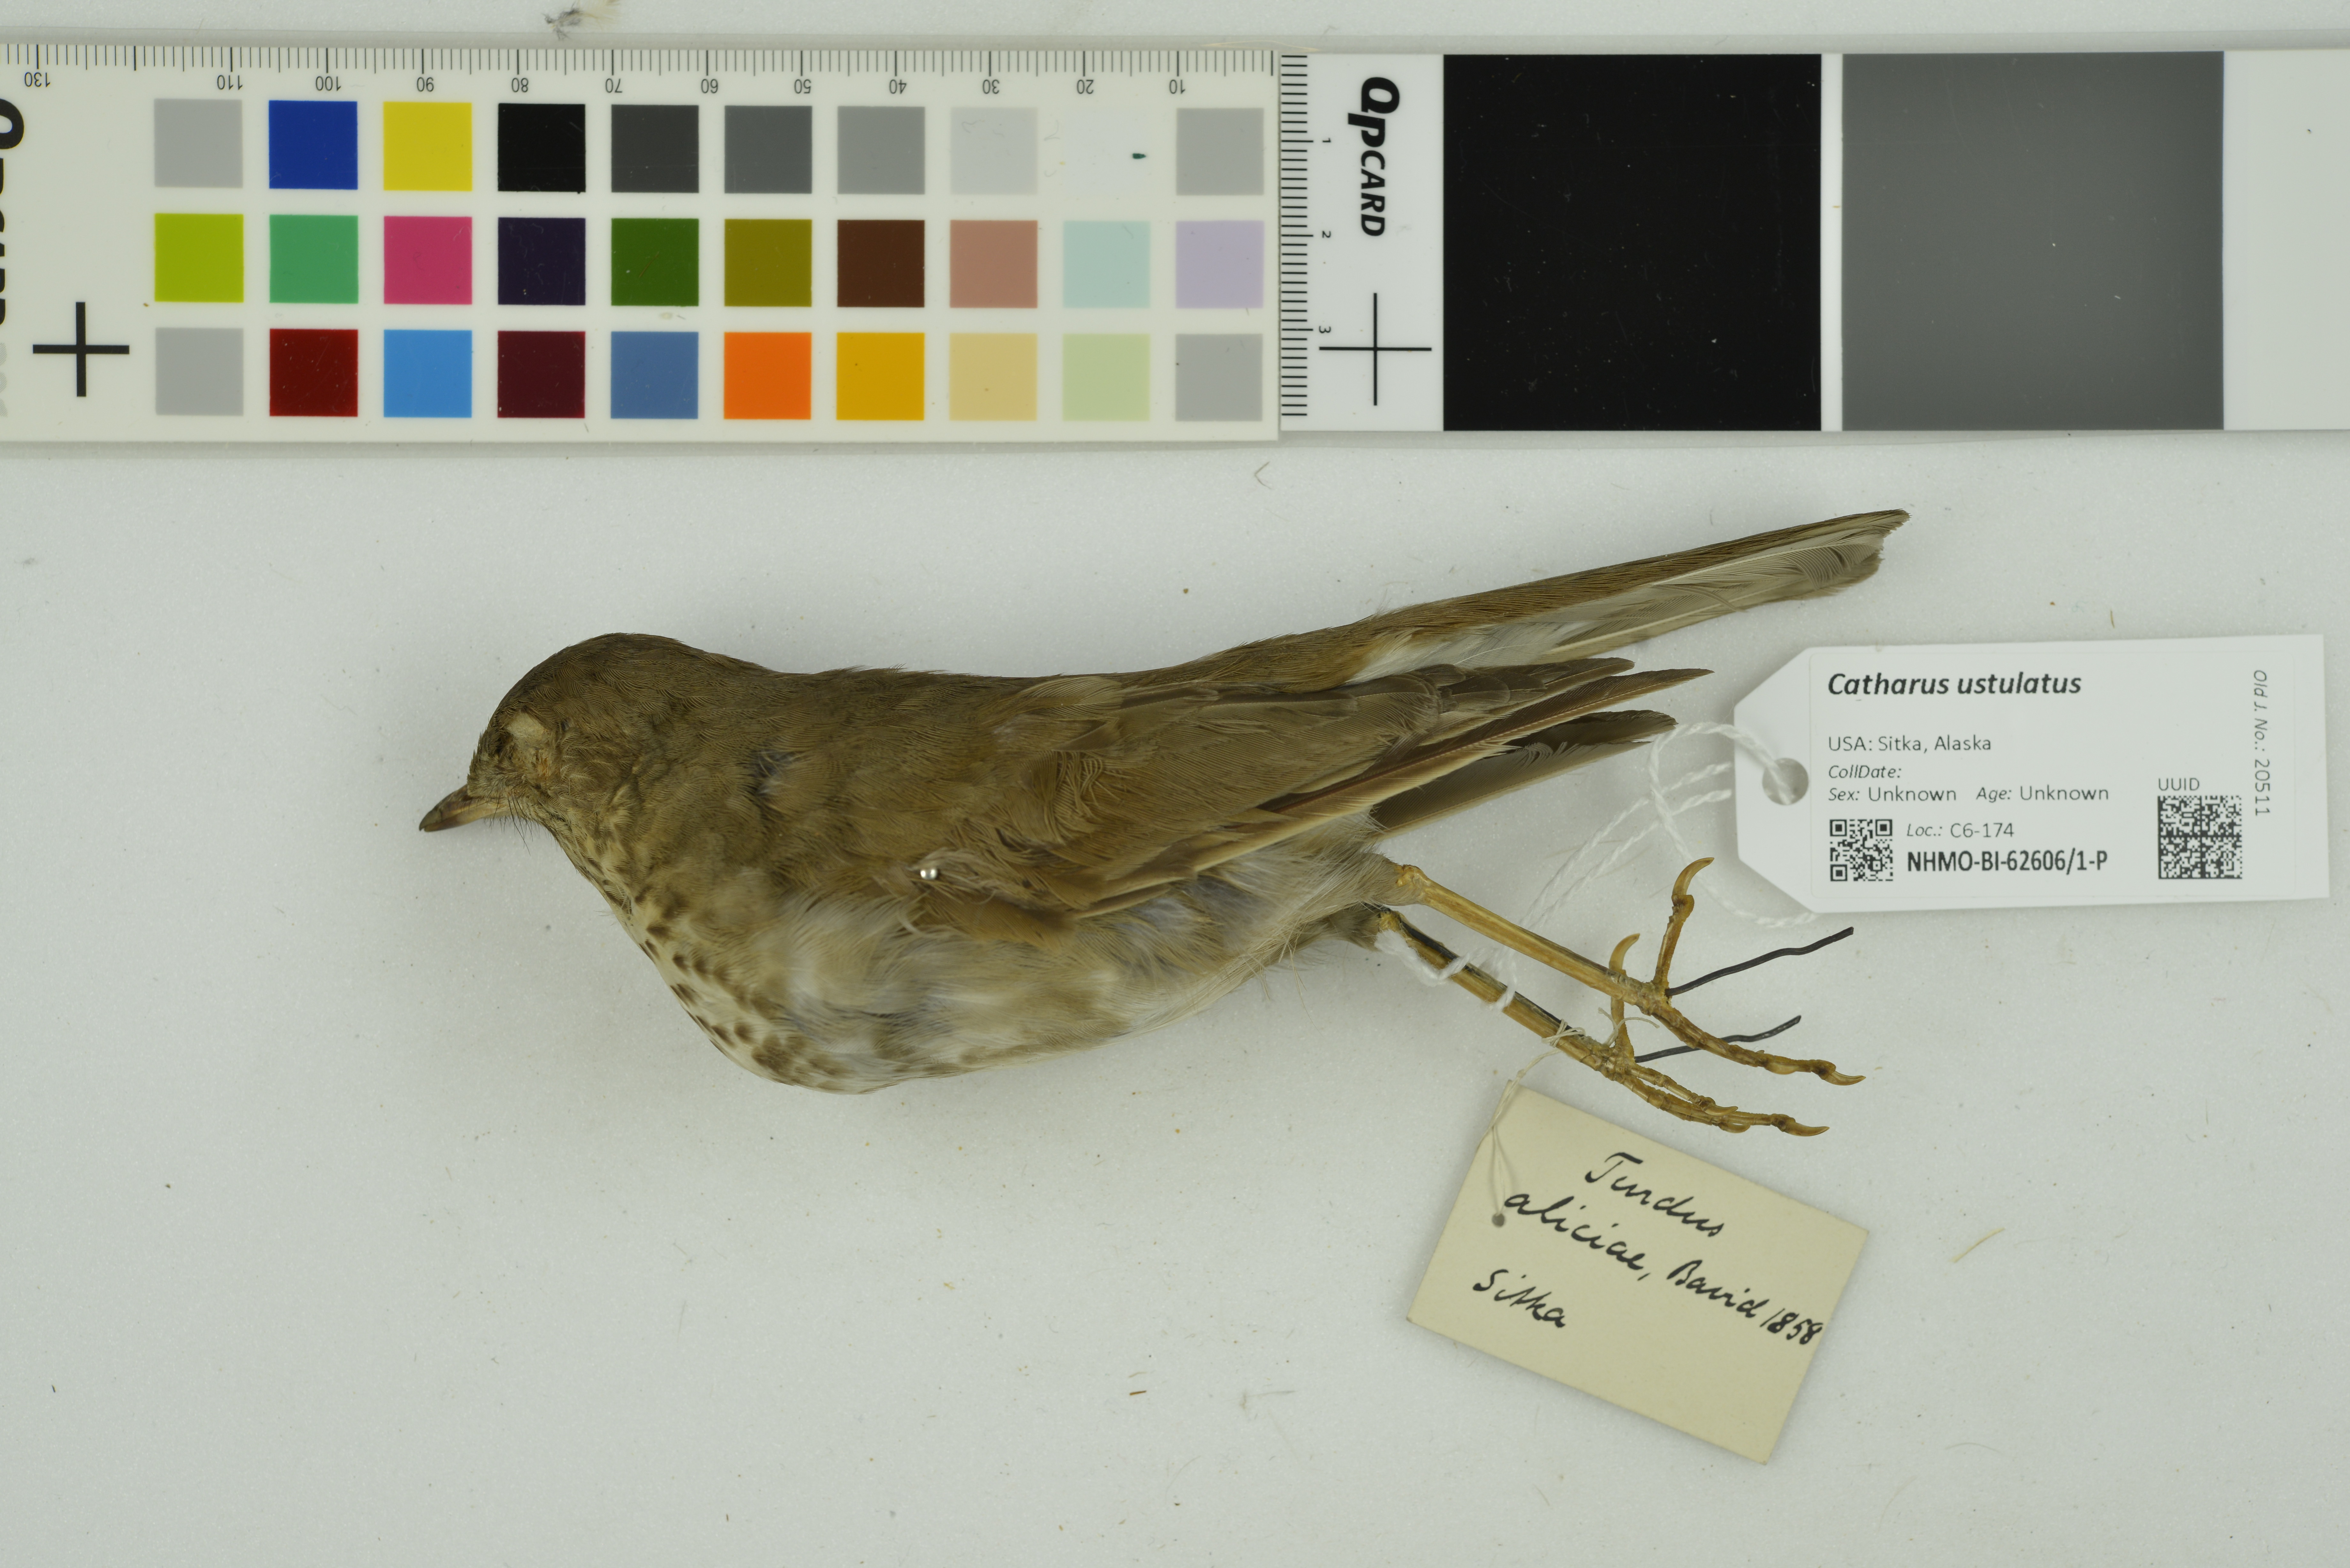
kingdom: Animalia
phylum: Chordata
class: Aves
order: Passeriformes
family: Turdidae
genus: Catharus
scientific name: Catharus ustulatus
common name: Swainson's thrush
